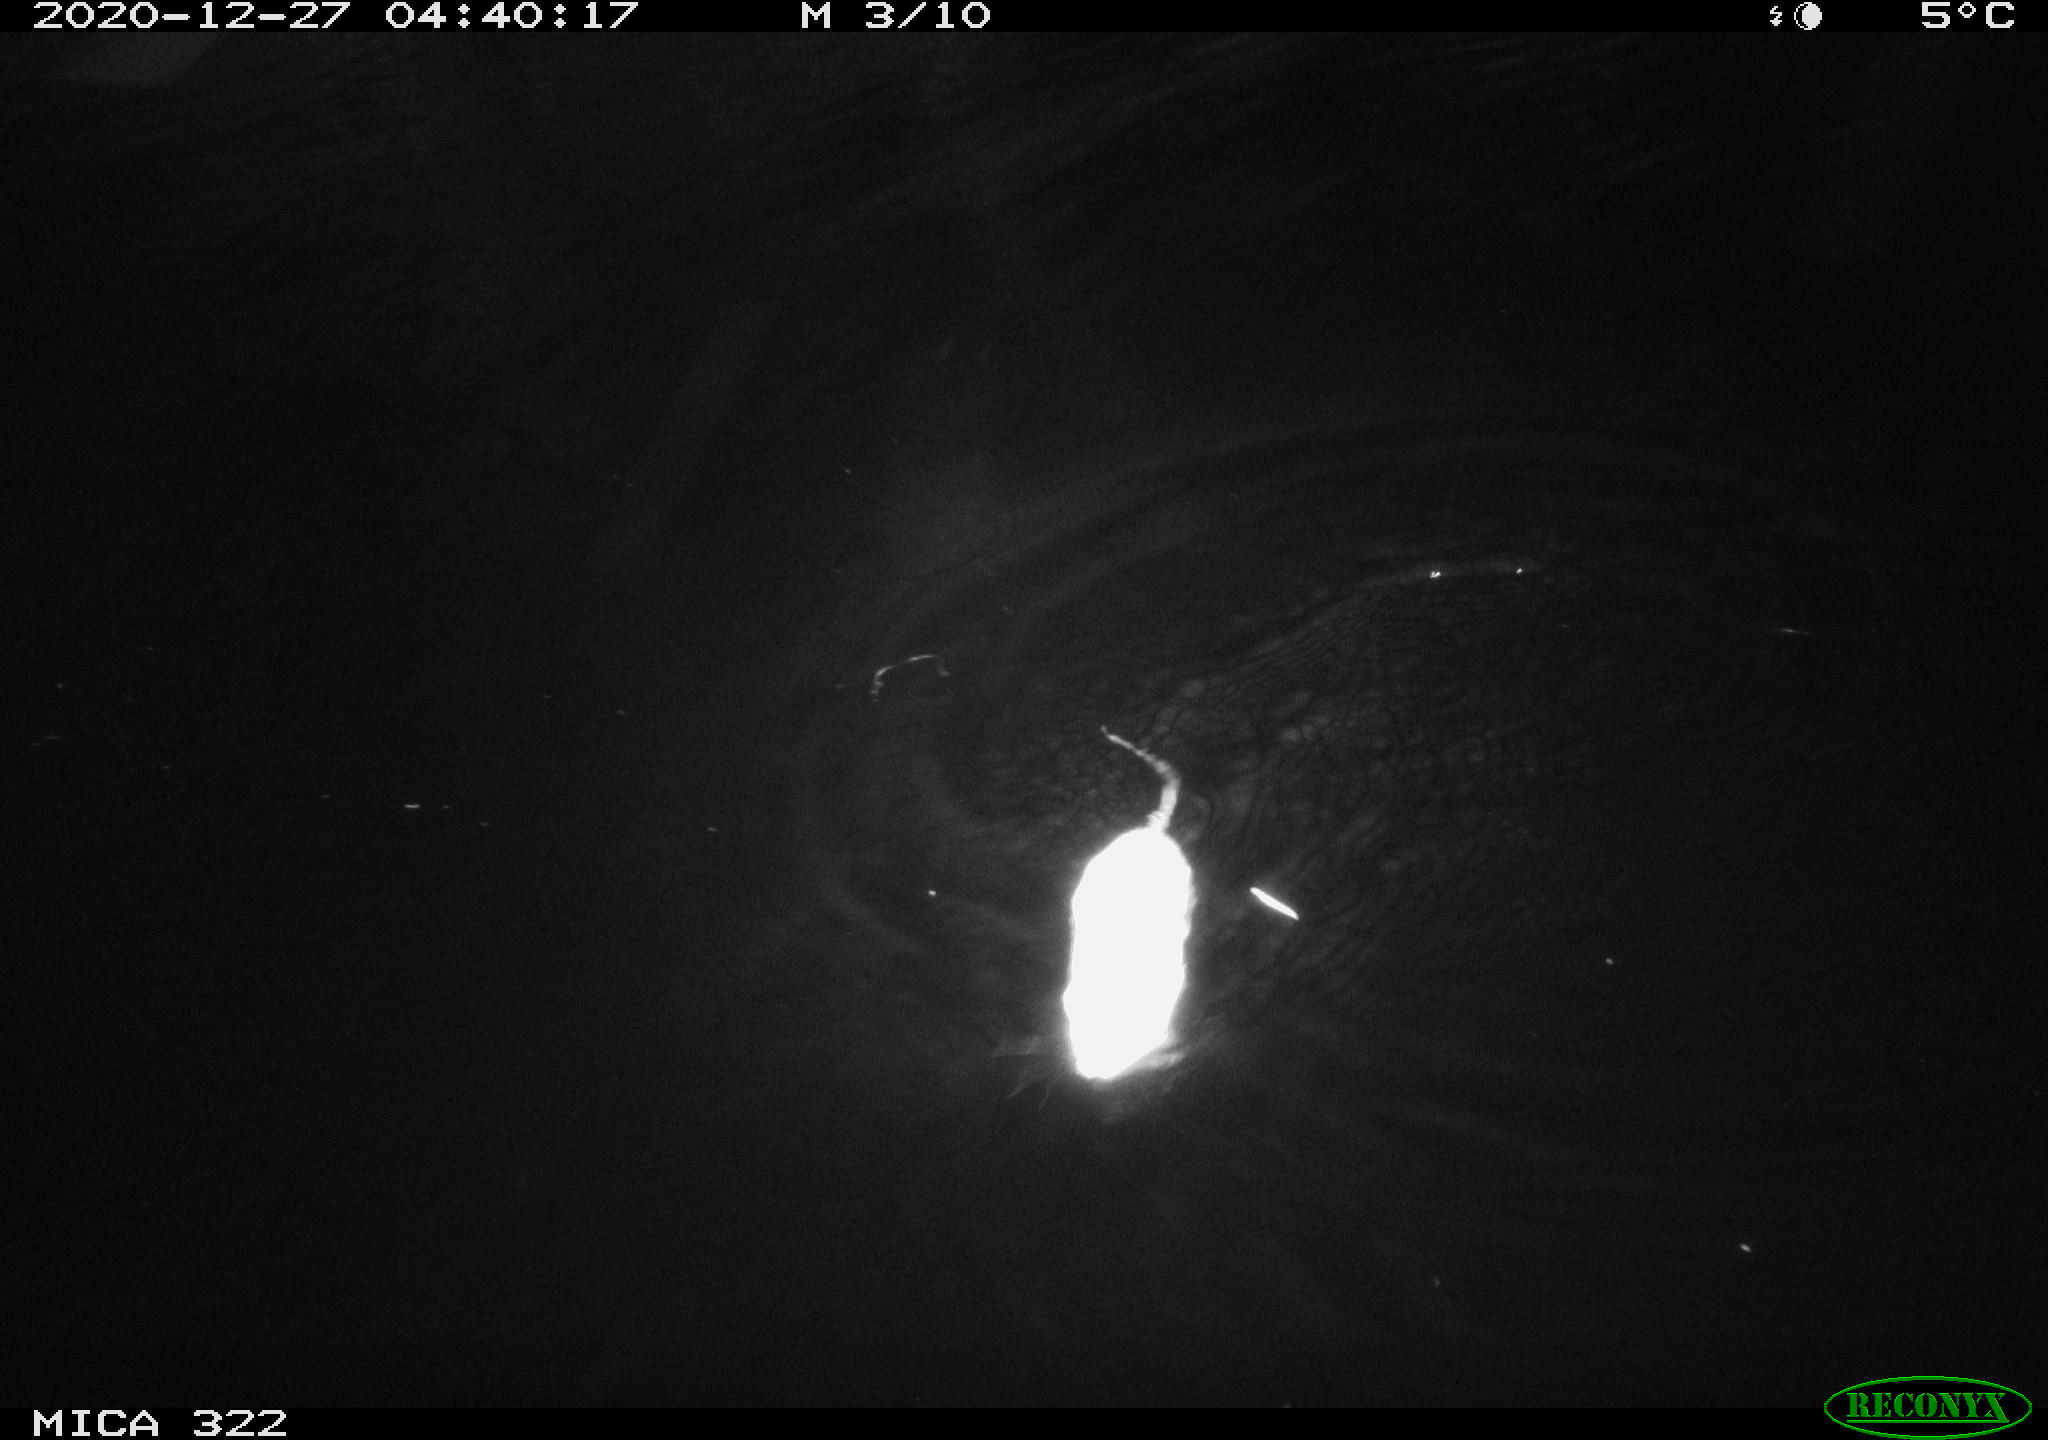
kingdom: Animalia
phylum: Chordata
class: Mammalia
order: Rodentia
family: Muridae
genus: Rattus
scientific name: Rattus norvegicus
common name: Brown rat
